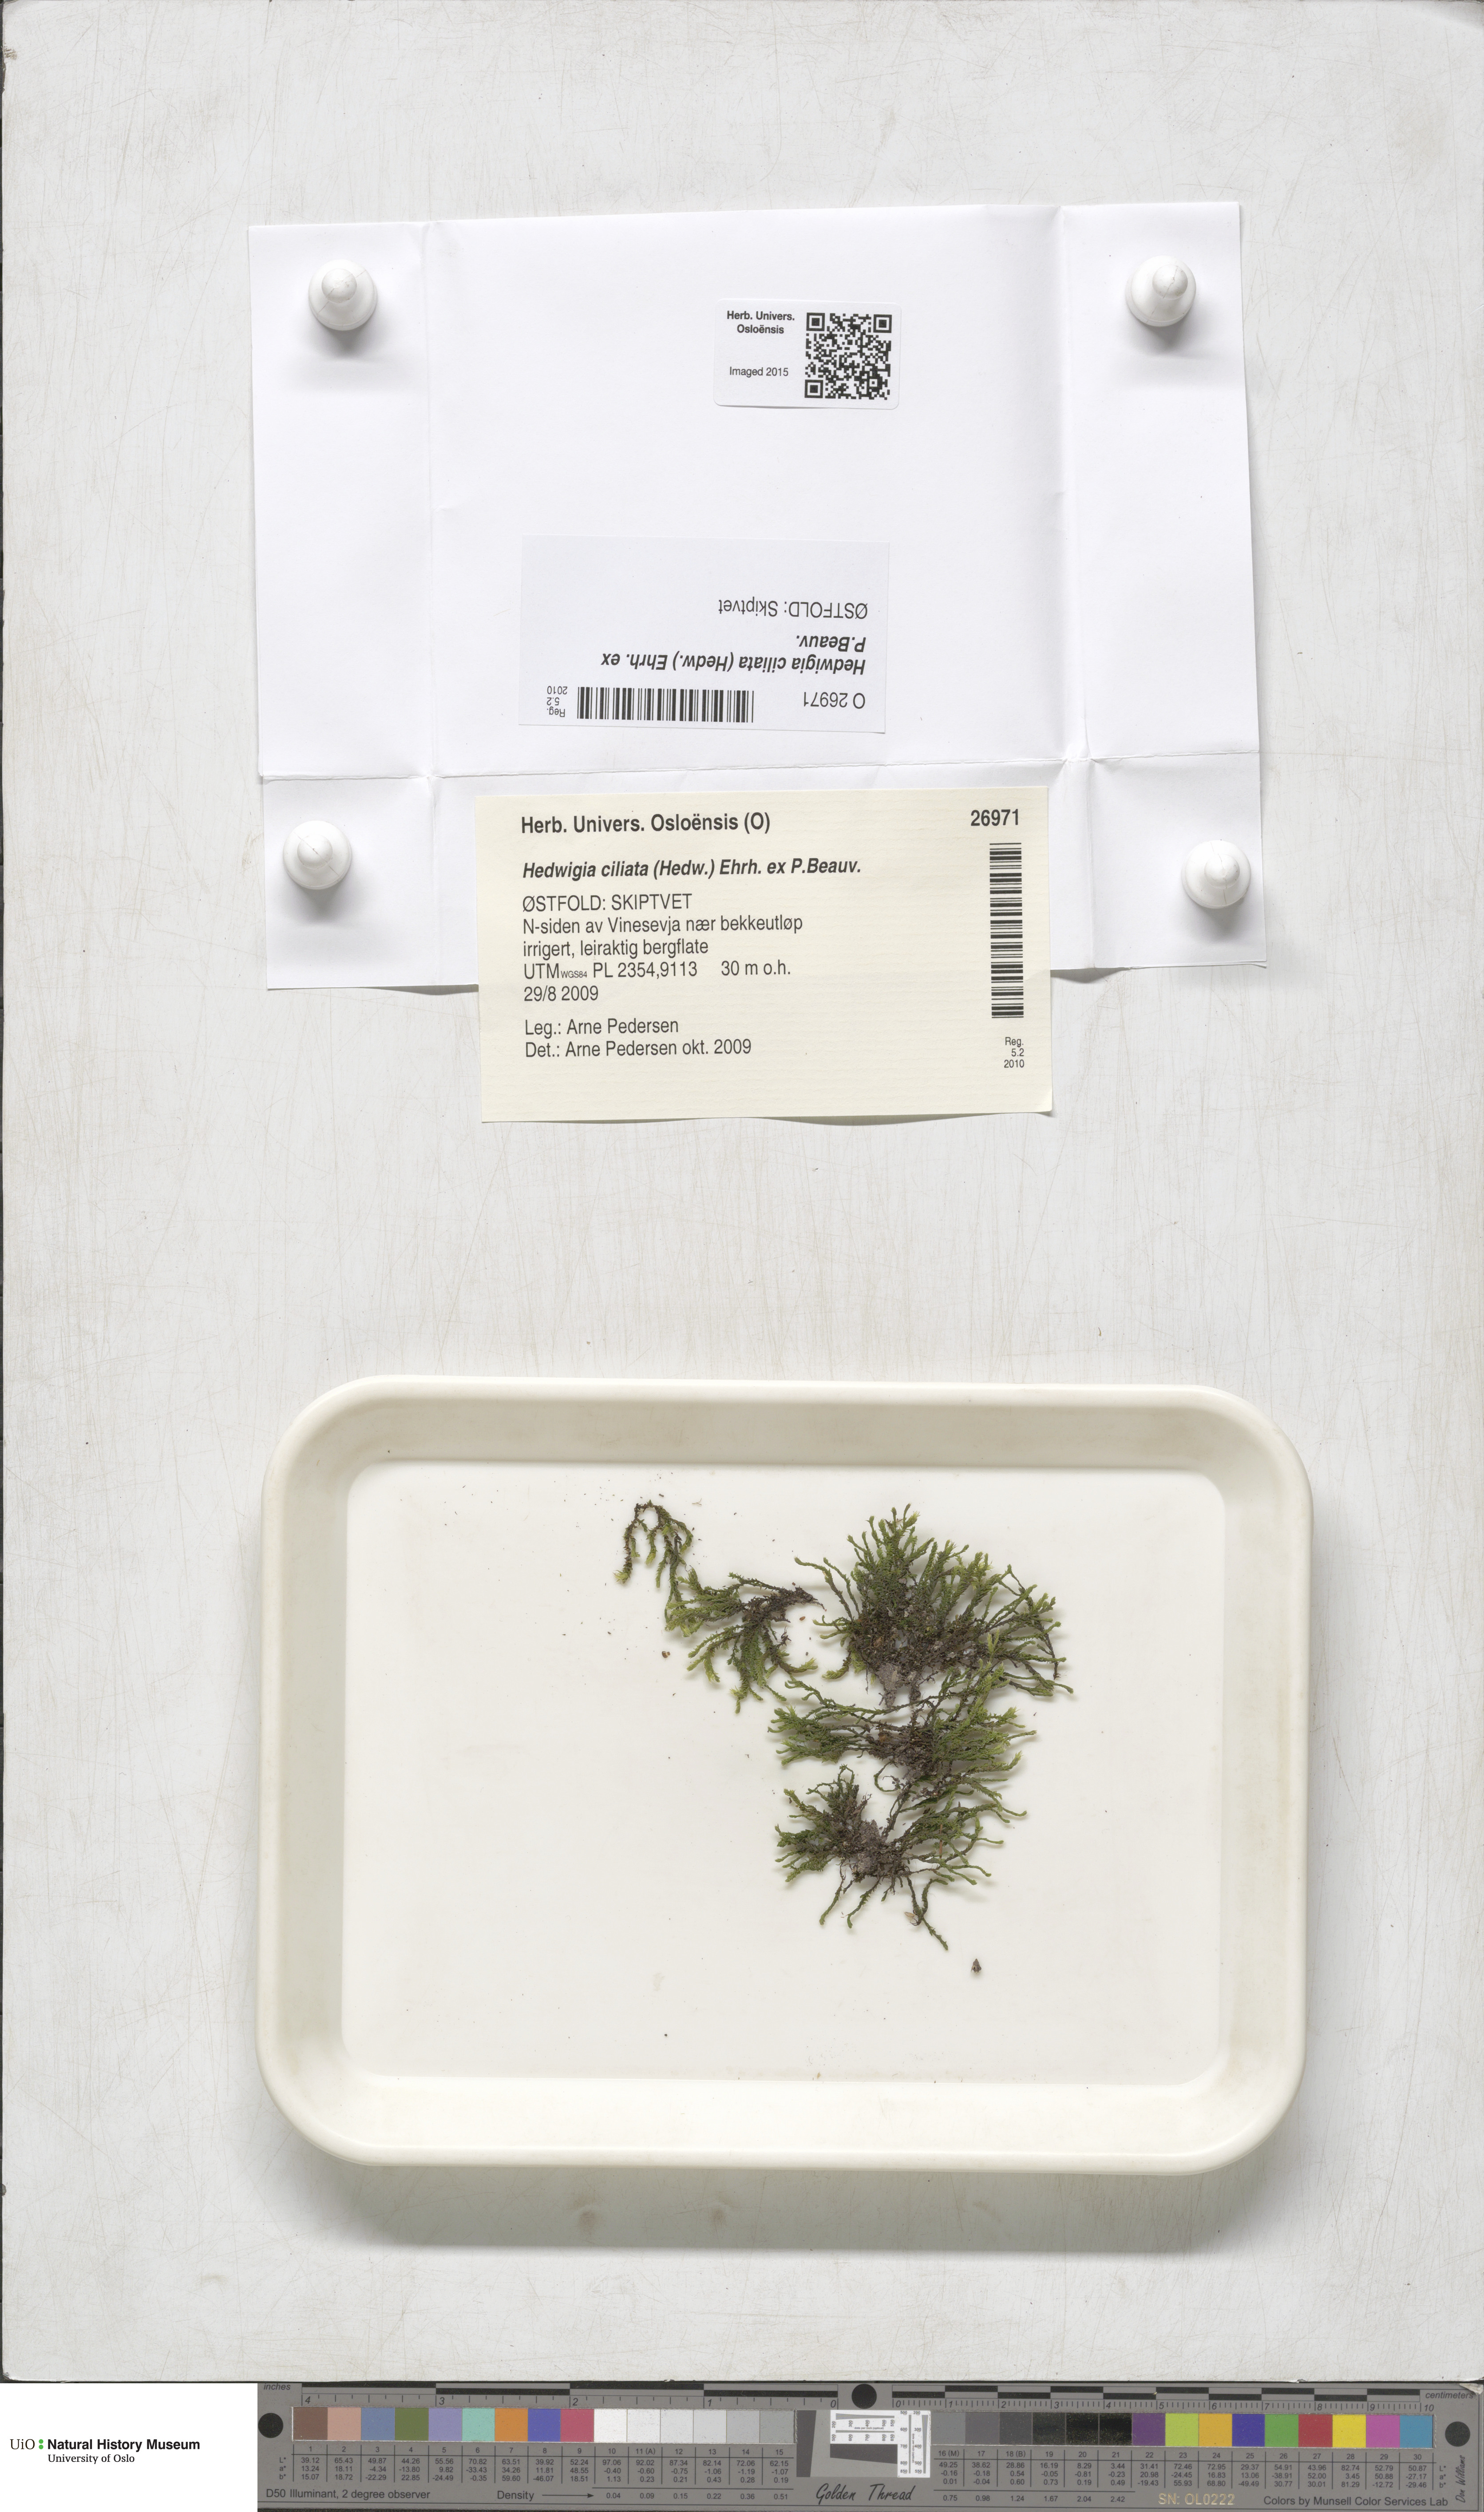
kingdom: Plantae
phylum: Bryophyta
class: Bryopsida
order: Hedwigiales
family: Hedwigiaceae
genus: Hedwigia
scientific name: Hedwigia ciliata
